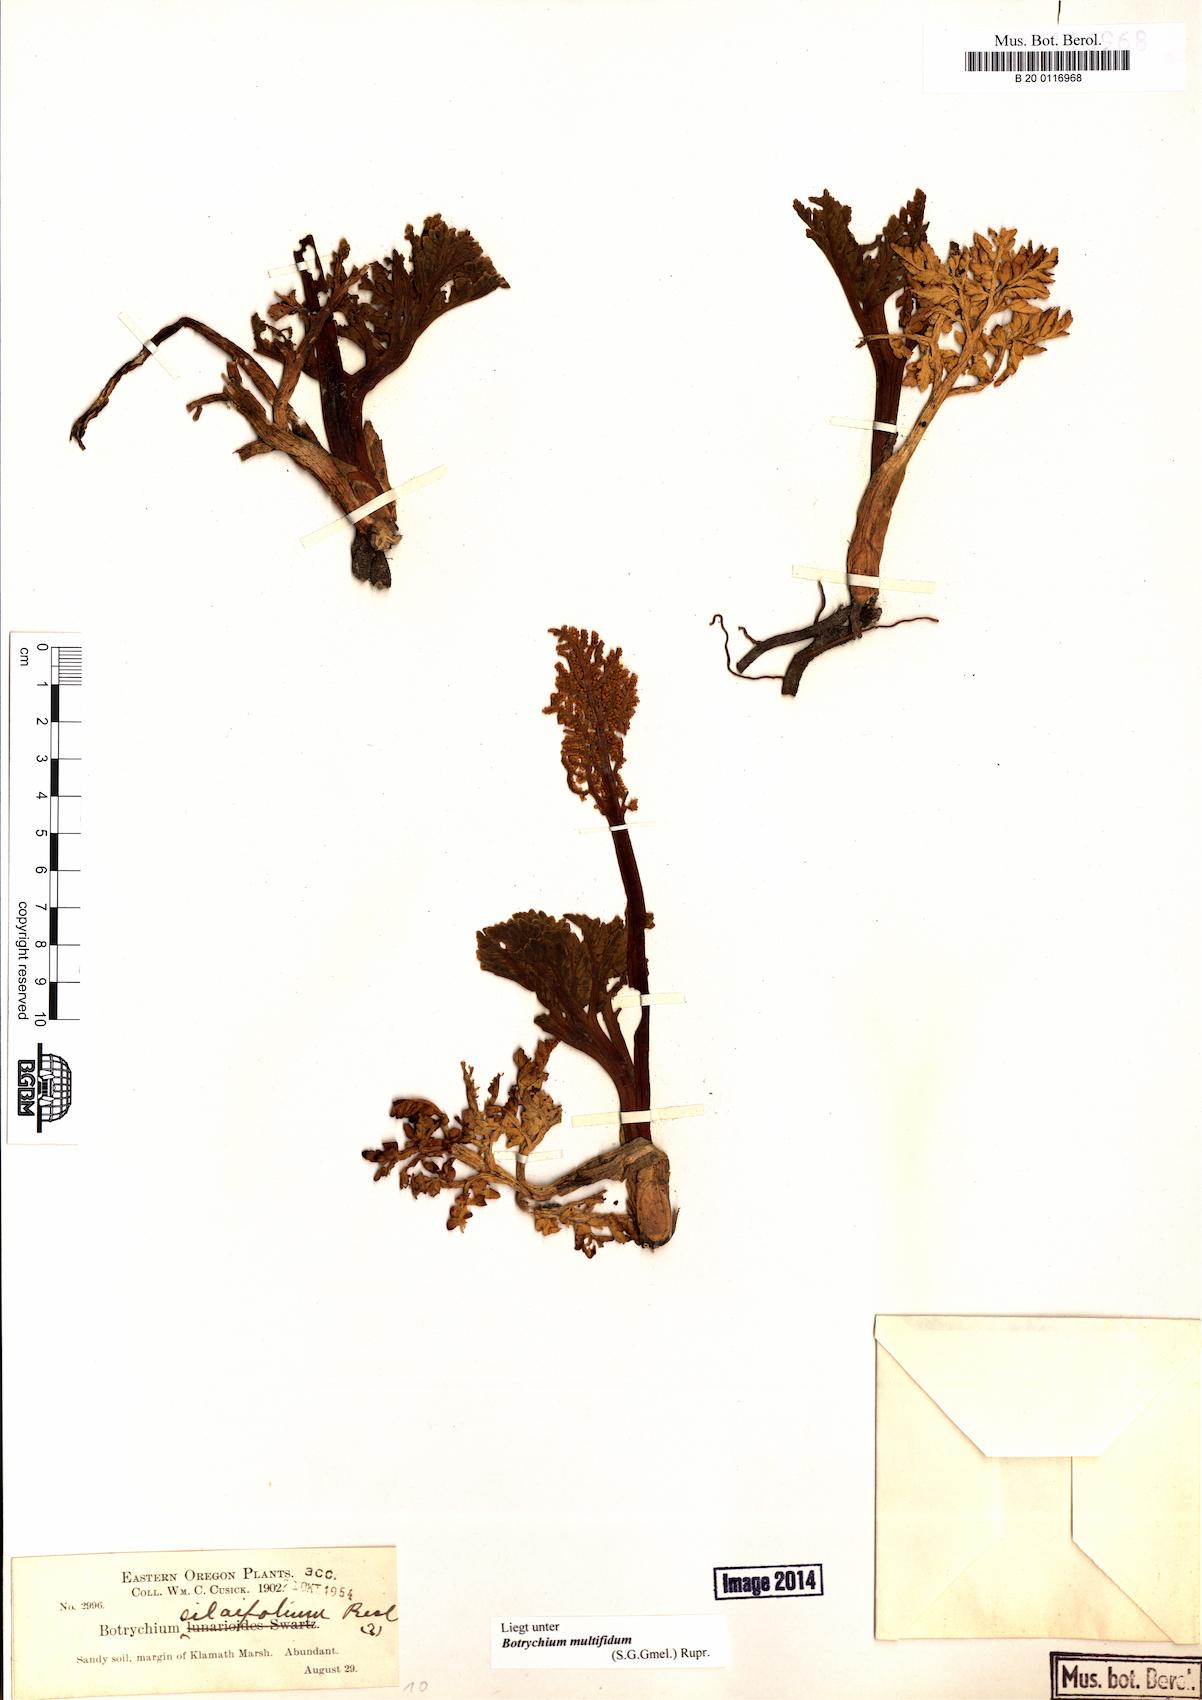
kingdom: Plantae
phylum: Tracheophyta
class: Polypodiopsida
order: Ophioglossales
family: Ophioglossaceae
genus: Sceptridium
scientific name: Sceptridium multifidum
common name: Leathery grape fern
